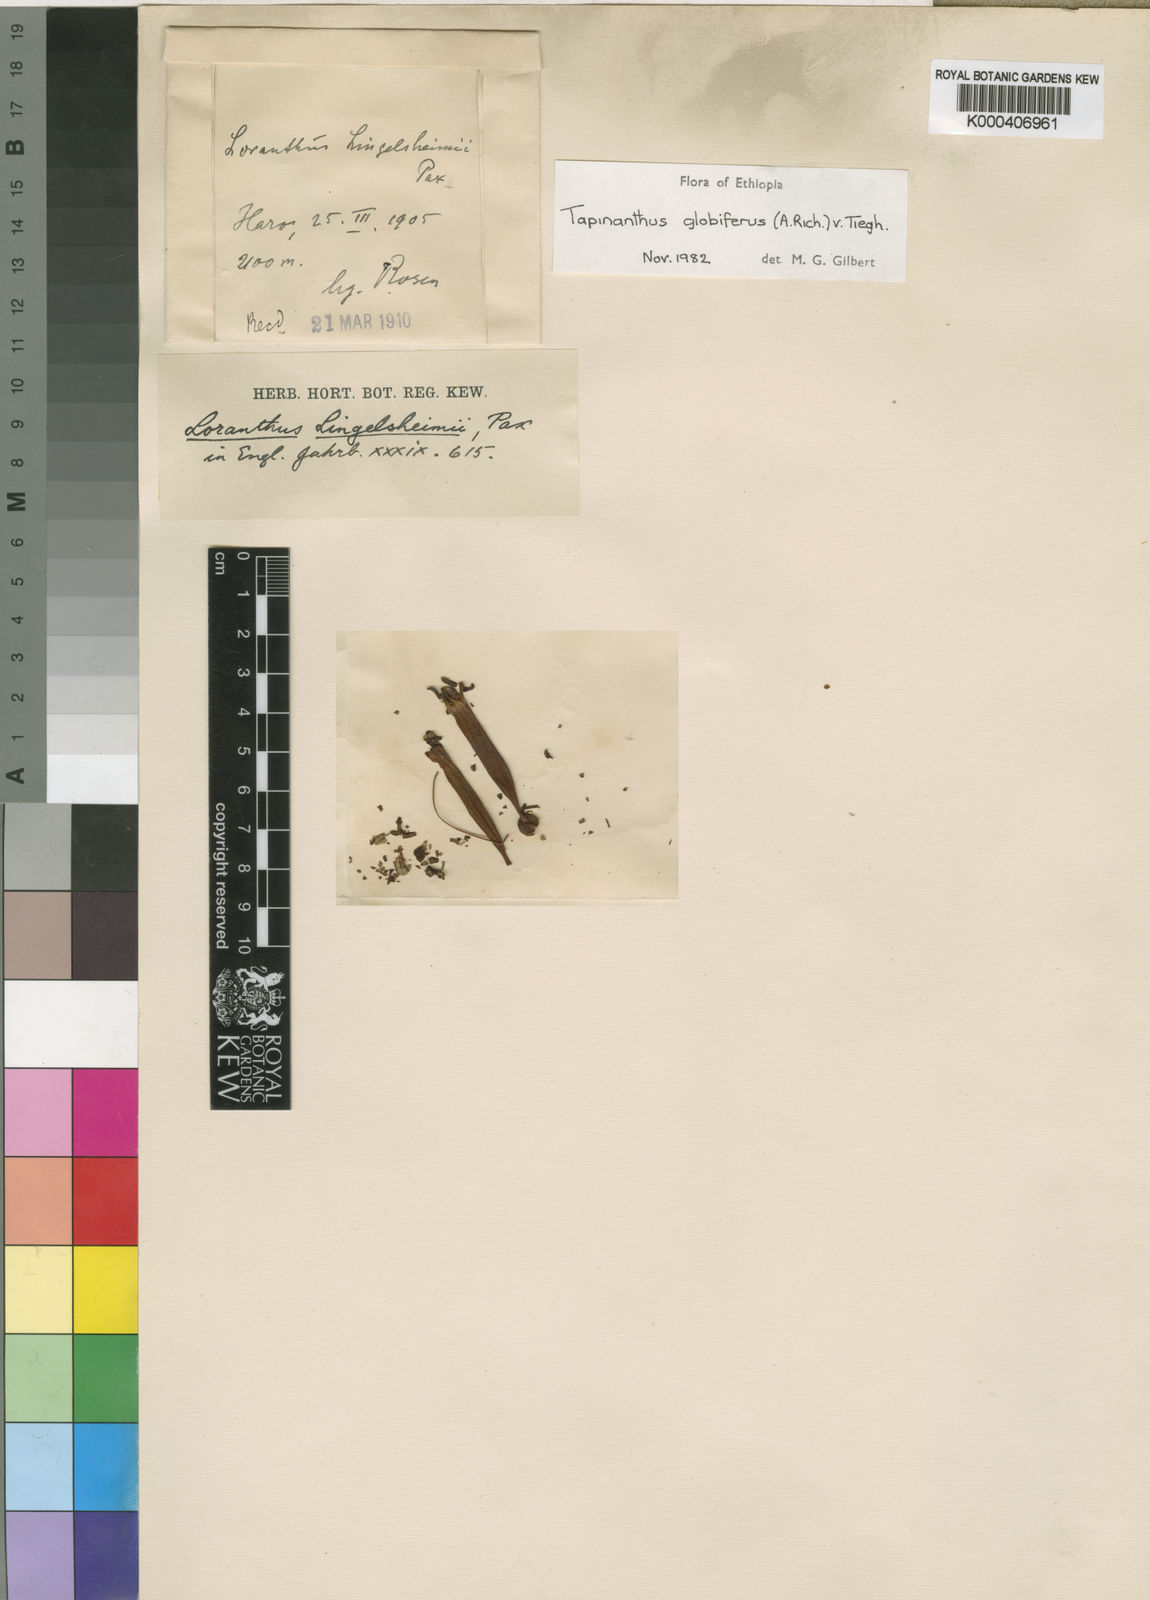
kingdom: Plantae
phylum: Tracheophyta
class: Magnoliopsida
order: Santalales
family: Loranthaceae
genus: Tapinanthus
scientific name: Tapinanthus
